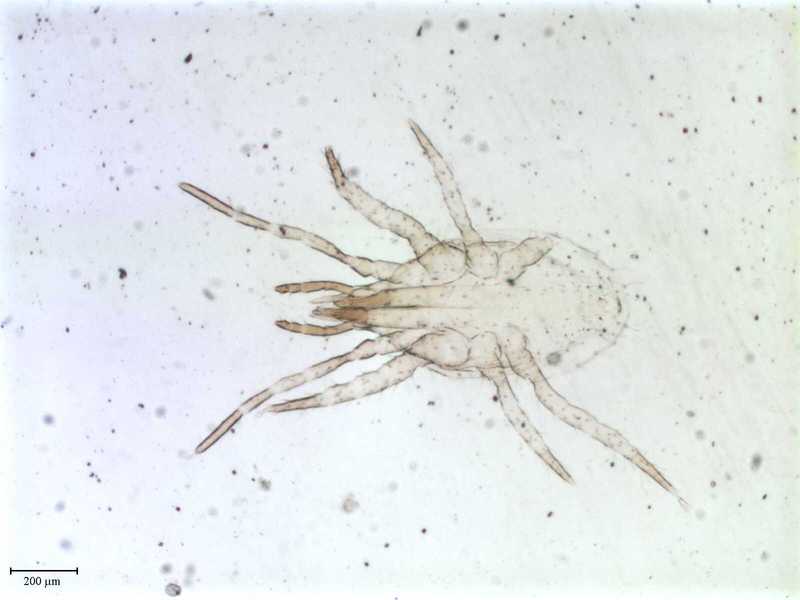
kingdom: Animalia
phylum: Arthropoda
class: Arachnida
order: Mesostigmata
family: Laelapidae
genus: Hypoaspis
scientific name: Hypoaspis
